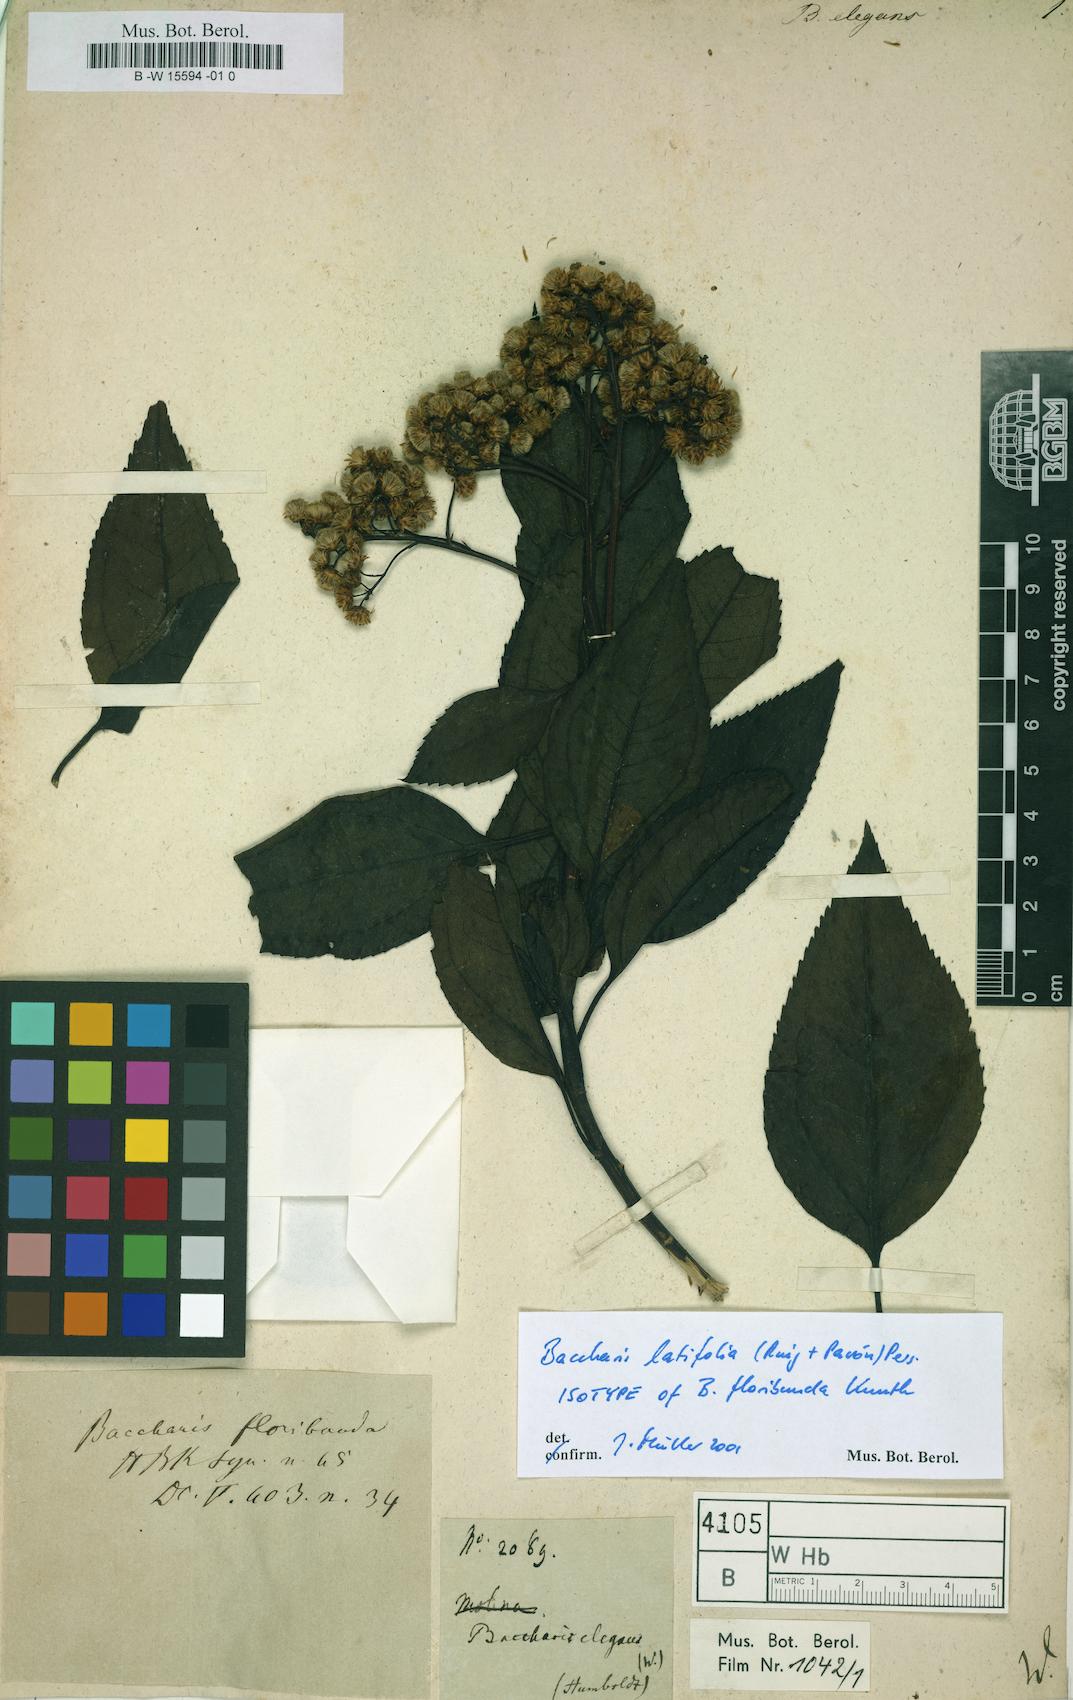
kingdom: Plantae
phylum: Tracheophyta
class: Magnoliopsida
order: Asterales
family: Asteraceae
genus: Archibaccharis
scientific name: Archibaccharis schiedeana
